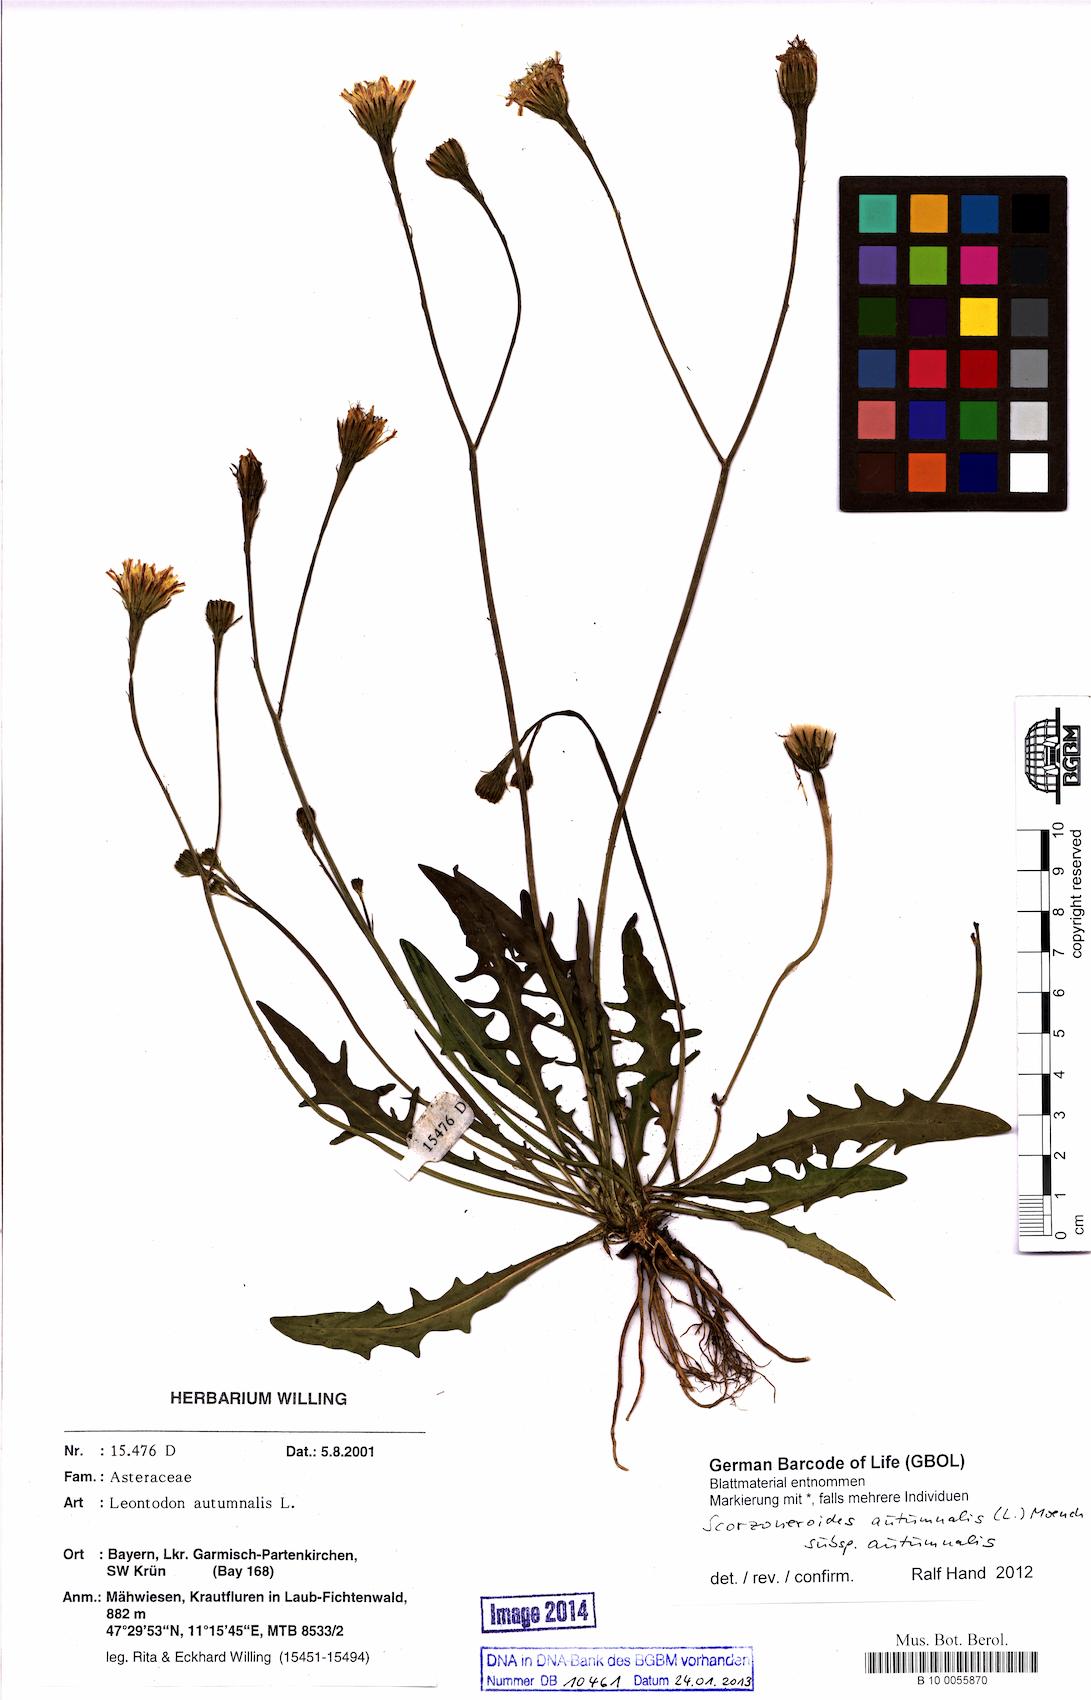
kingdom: Plantae
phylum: Tracheophyta
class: Magnoliopsida
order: Asterales
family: Asteraceae
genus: Scorzoneroides
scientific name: Scorzoneroides autumnalis
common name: Autumn hawkbit
